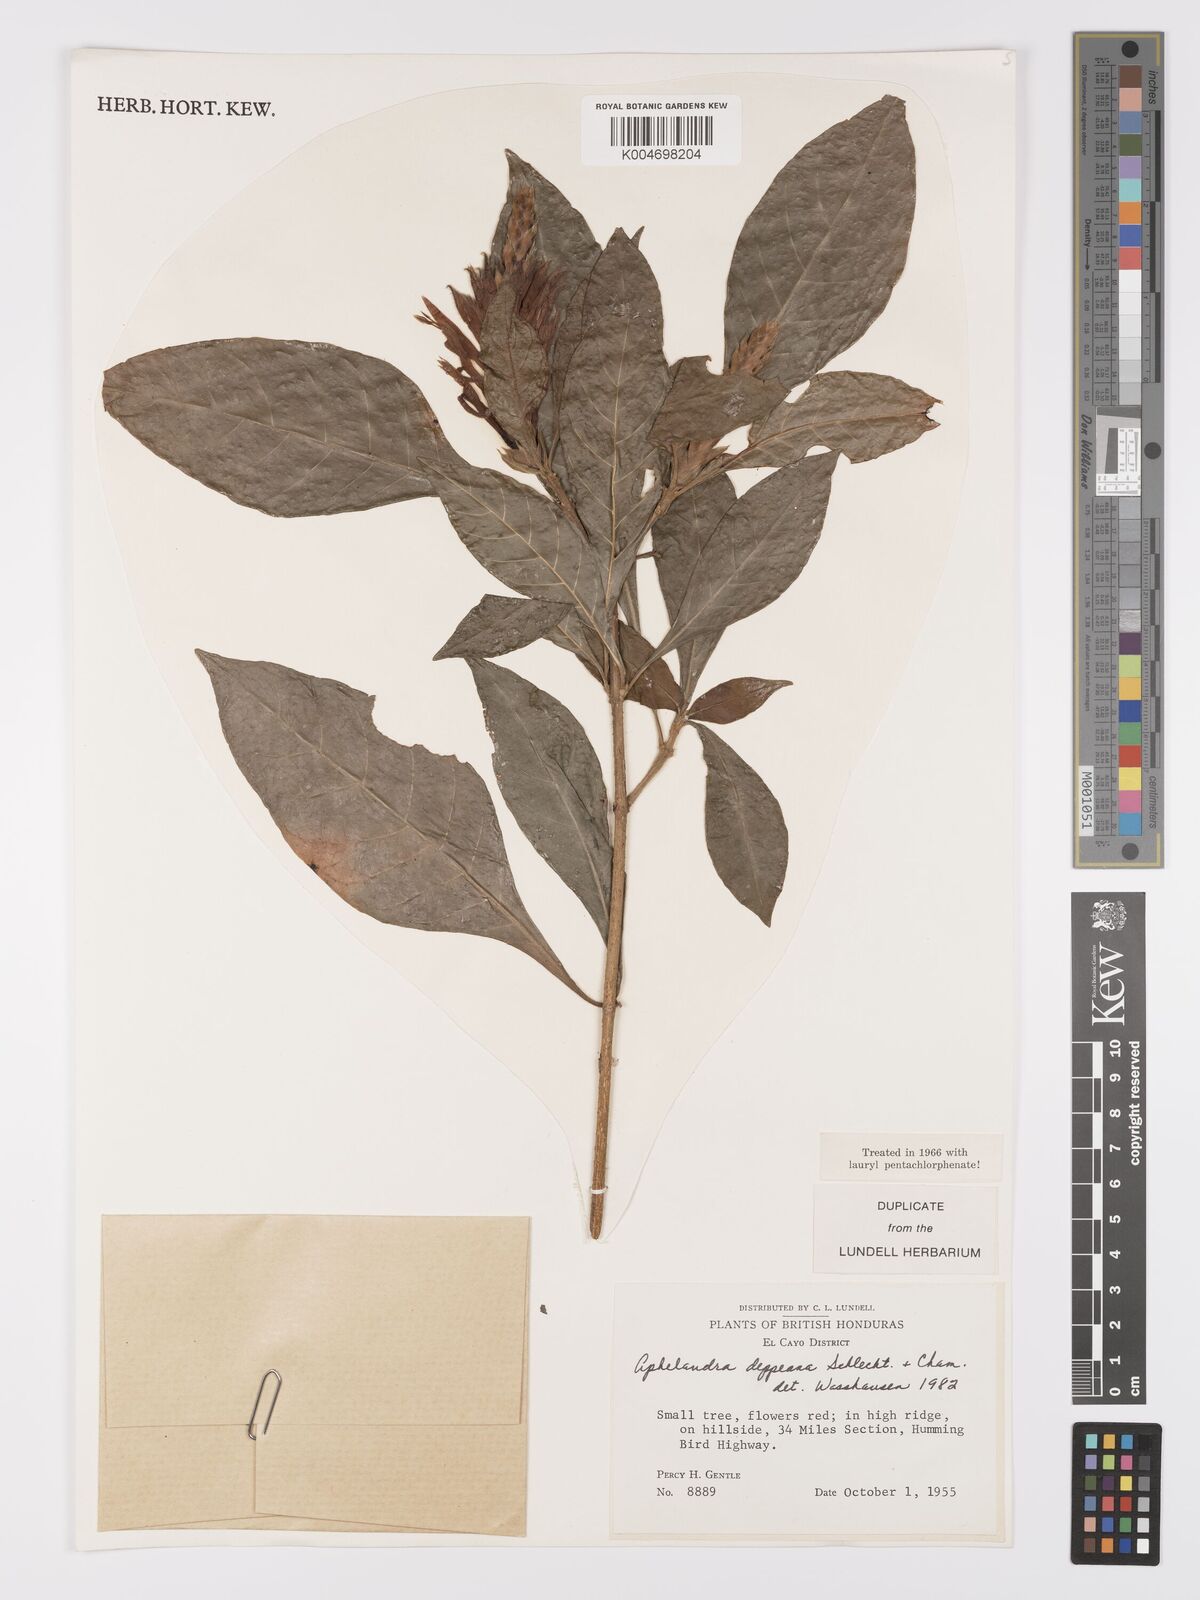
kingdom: Plantae
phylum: Tracheophyta
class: Magnoliopsida
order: Lamiales
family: Acanthaceae
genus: Aphelandra
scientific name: Aphelandra scabra
